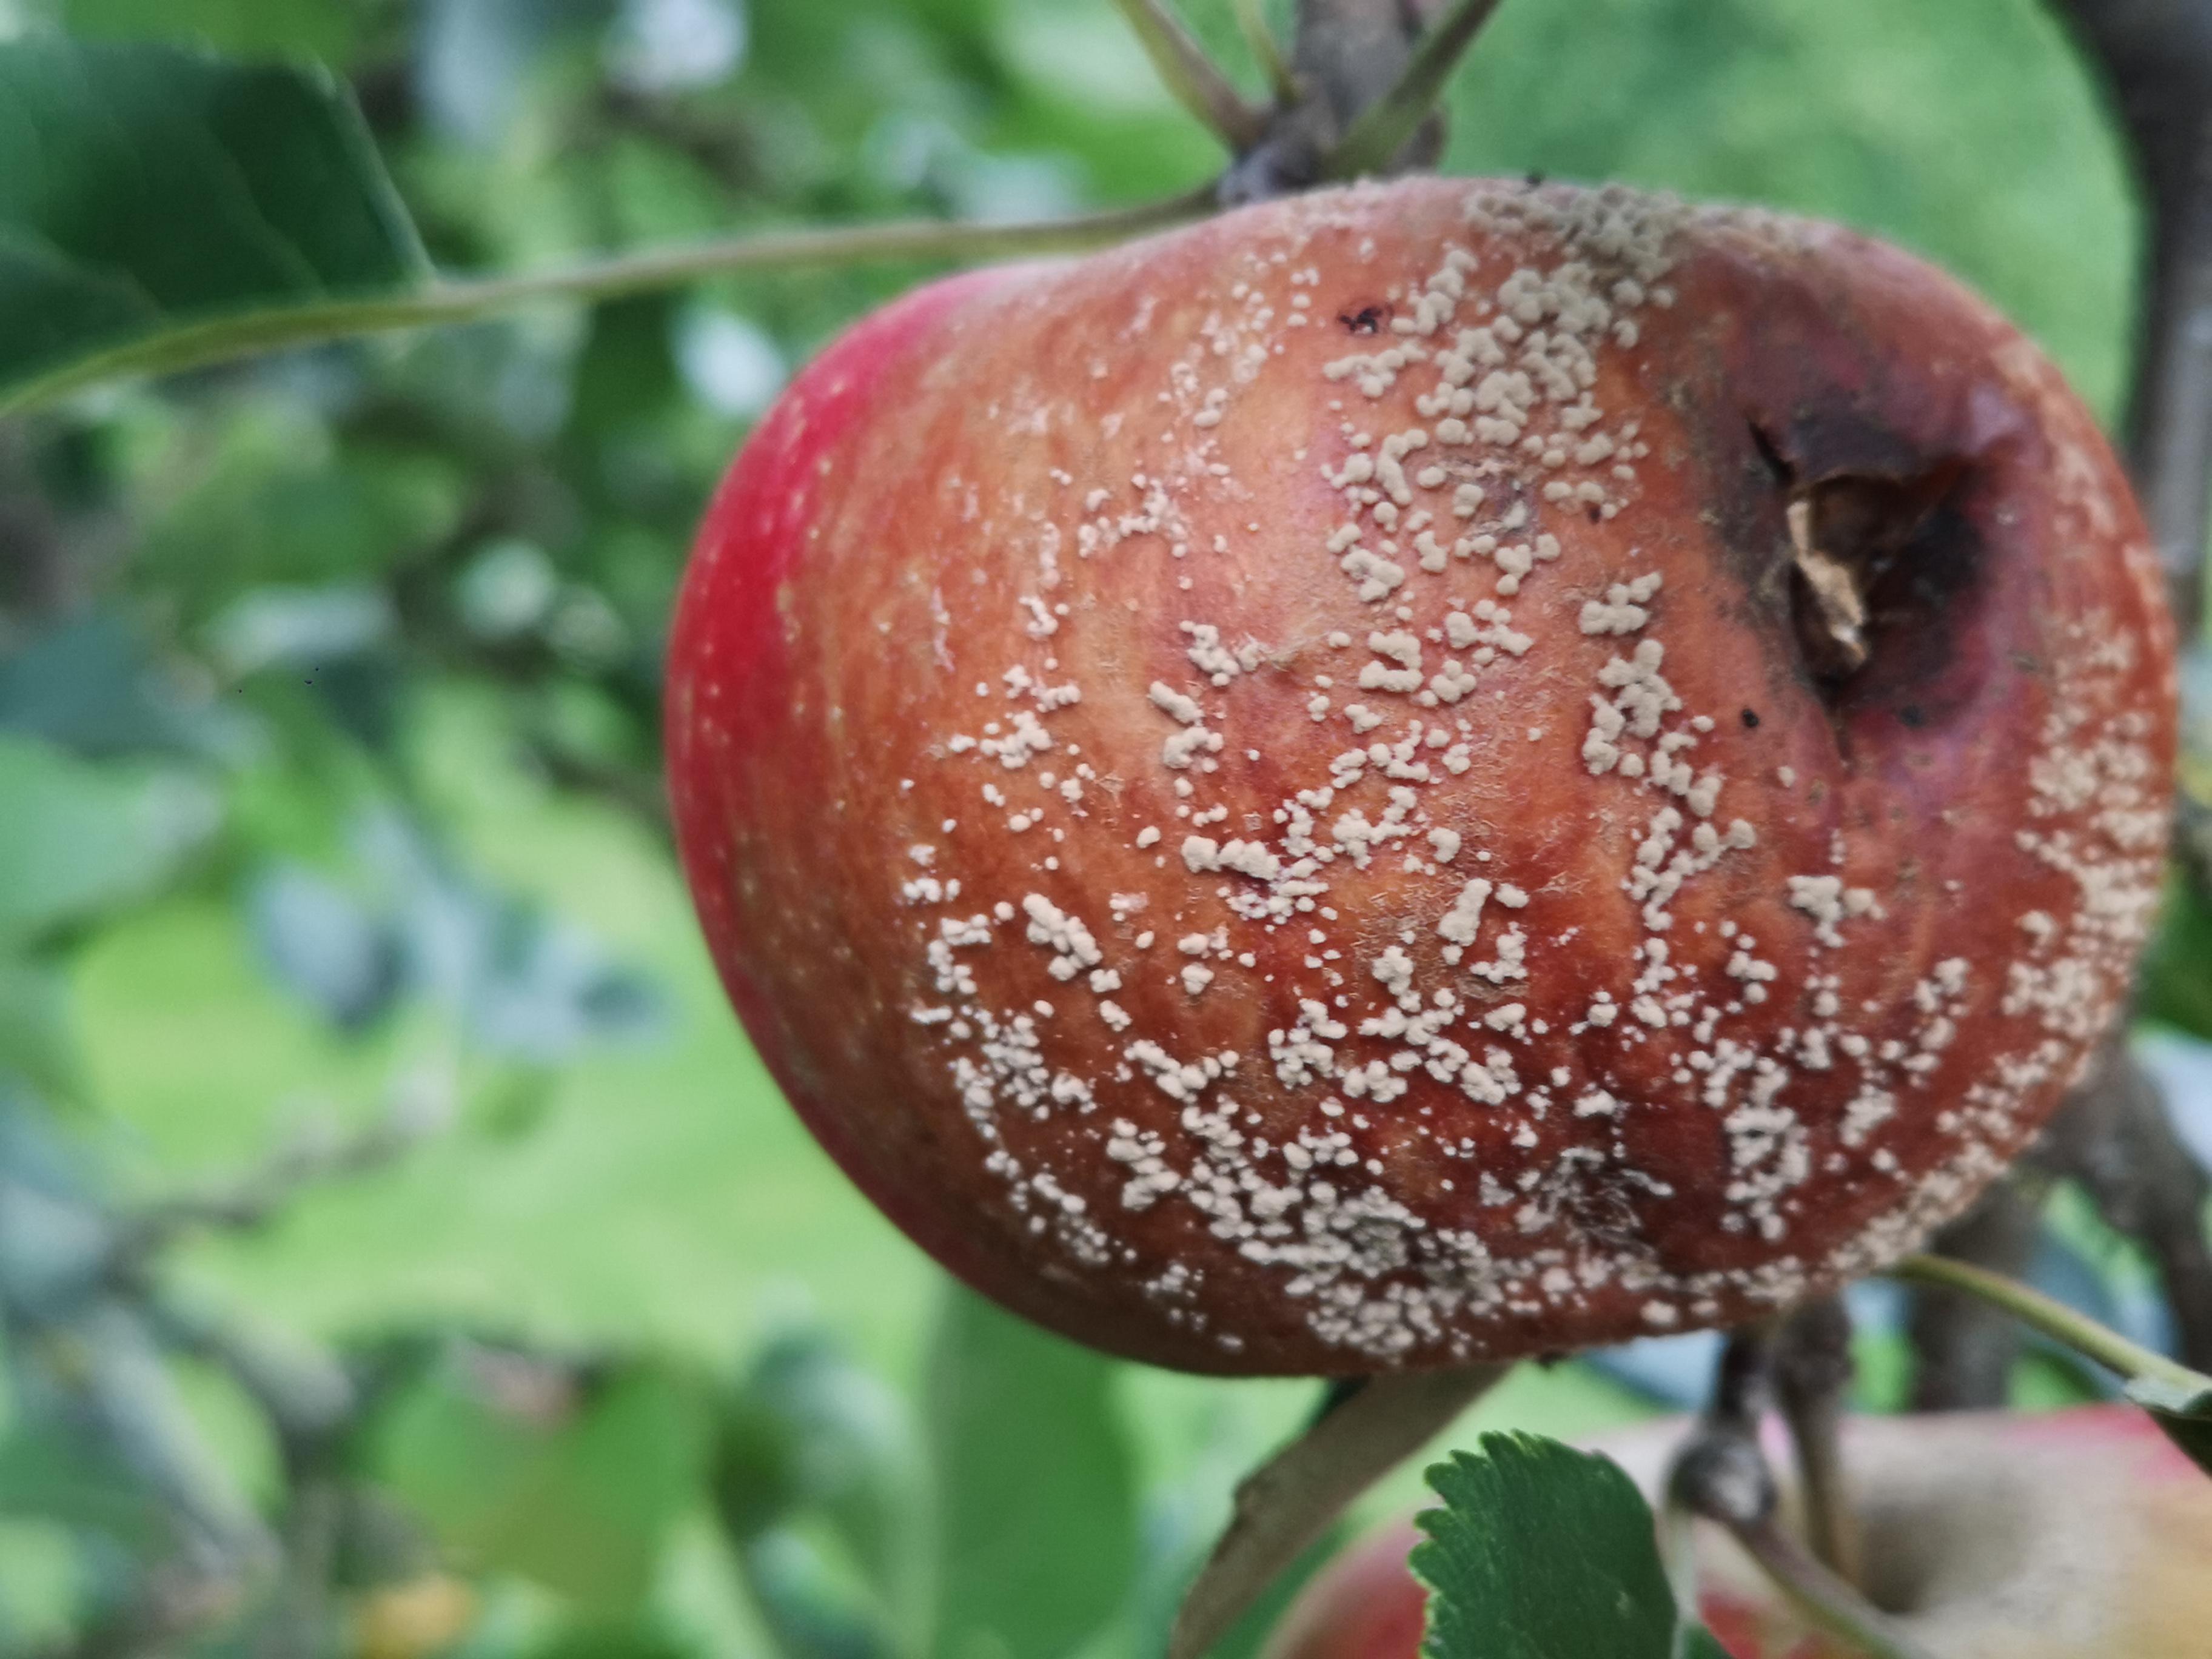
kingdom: Fungi
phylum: Ascomycota
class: Leotiomycetes
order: Helotiales
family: Sclerotiniaceae
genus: Monilinia
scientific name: Monilinia fructigena
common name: æble-knoldskive
